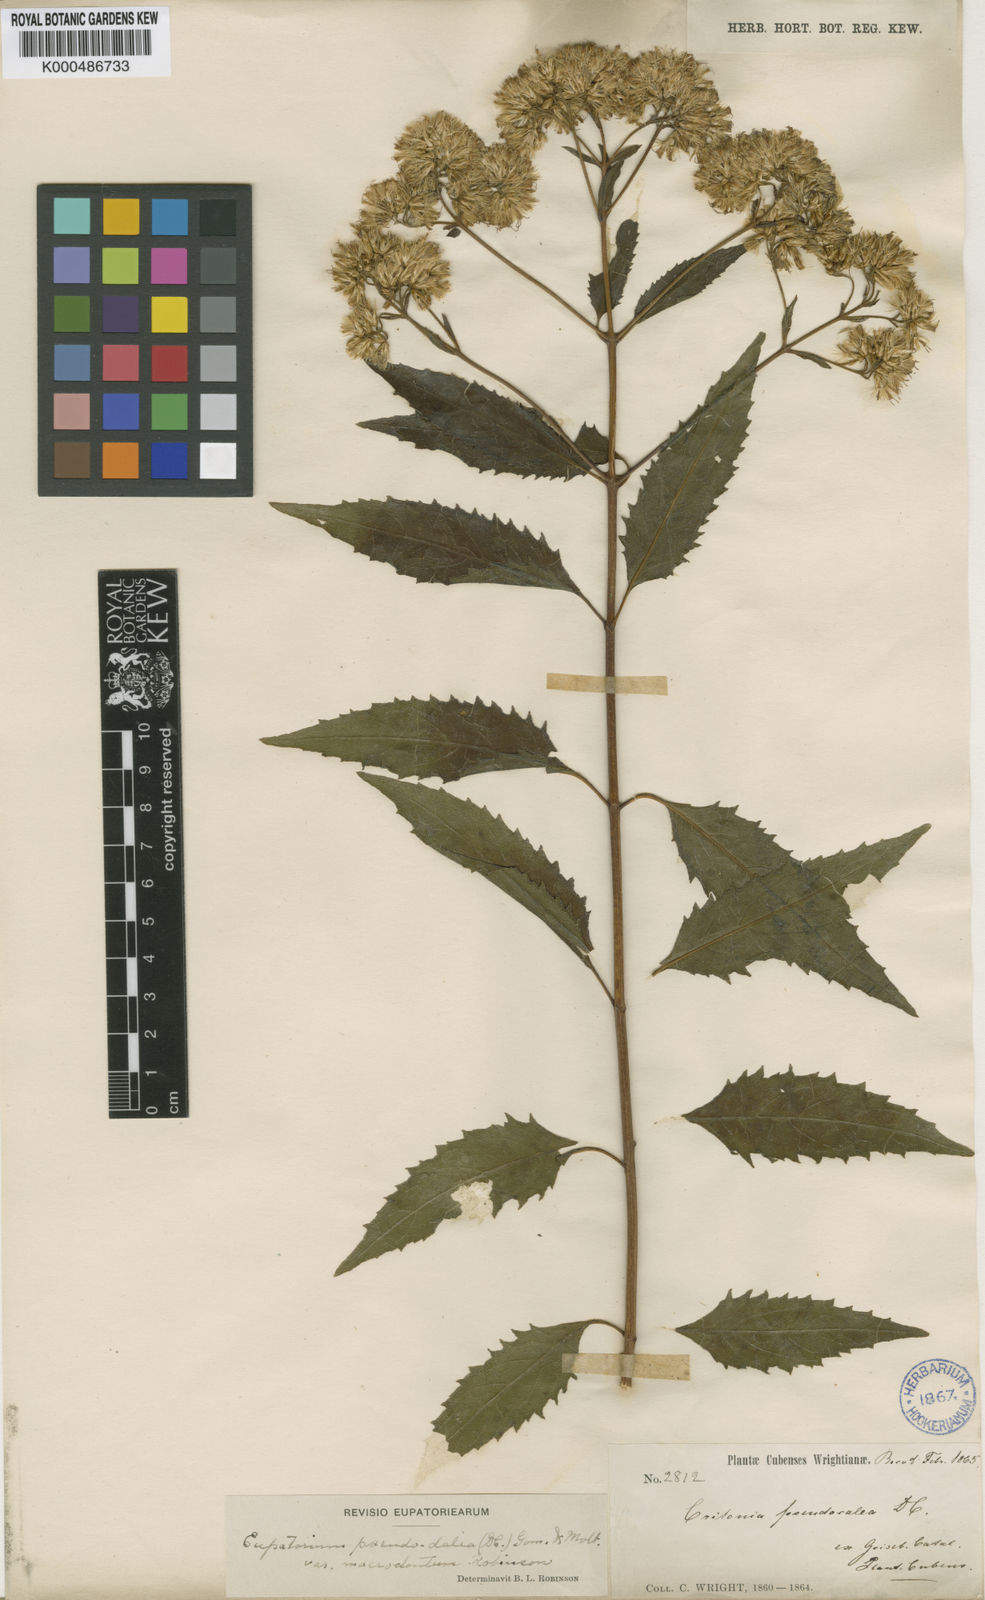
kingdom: Plantae
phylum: Tracheophyta
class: Magnoliopsida
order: Asterales
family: Asteraceae
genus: Critonia
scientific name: Critonia pseudodalea
